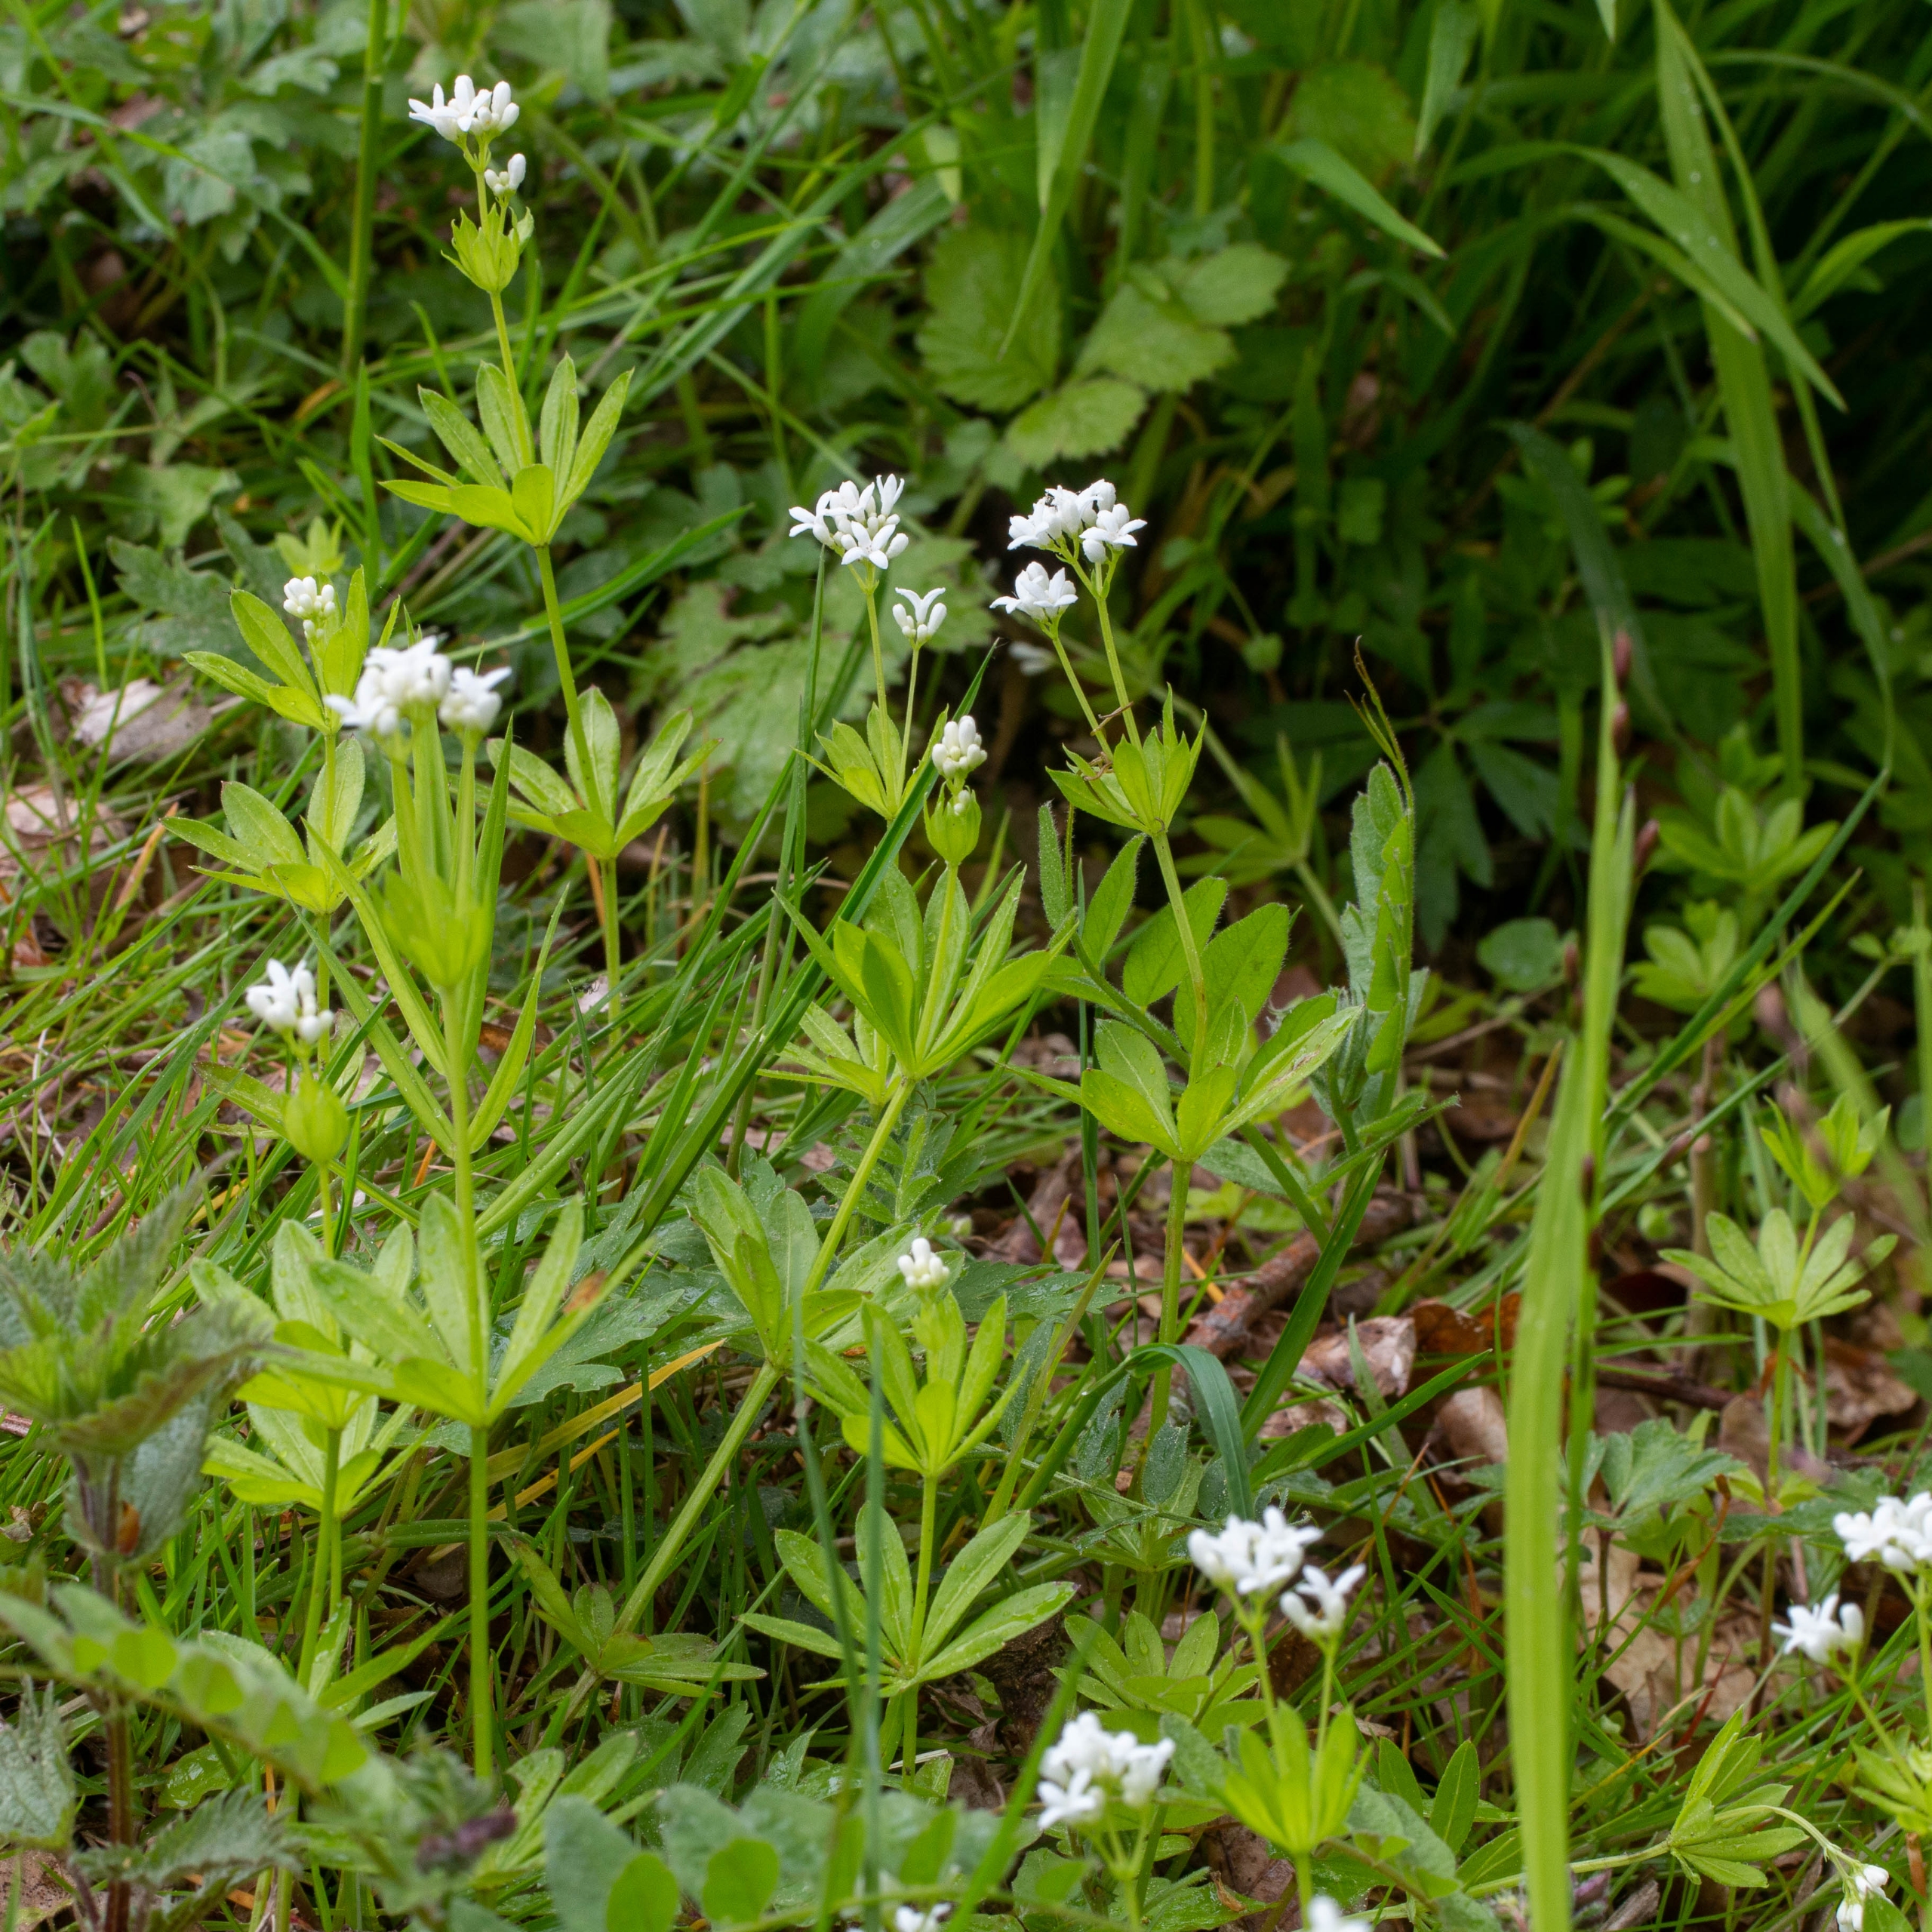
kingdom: Plantae
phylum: Tracheophyta
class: Magnoliopsida
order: Gentianales
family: Rubiaceae
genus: Galium
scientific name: Galium odoratum
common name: Skovmærke
